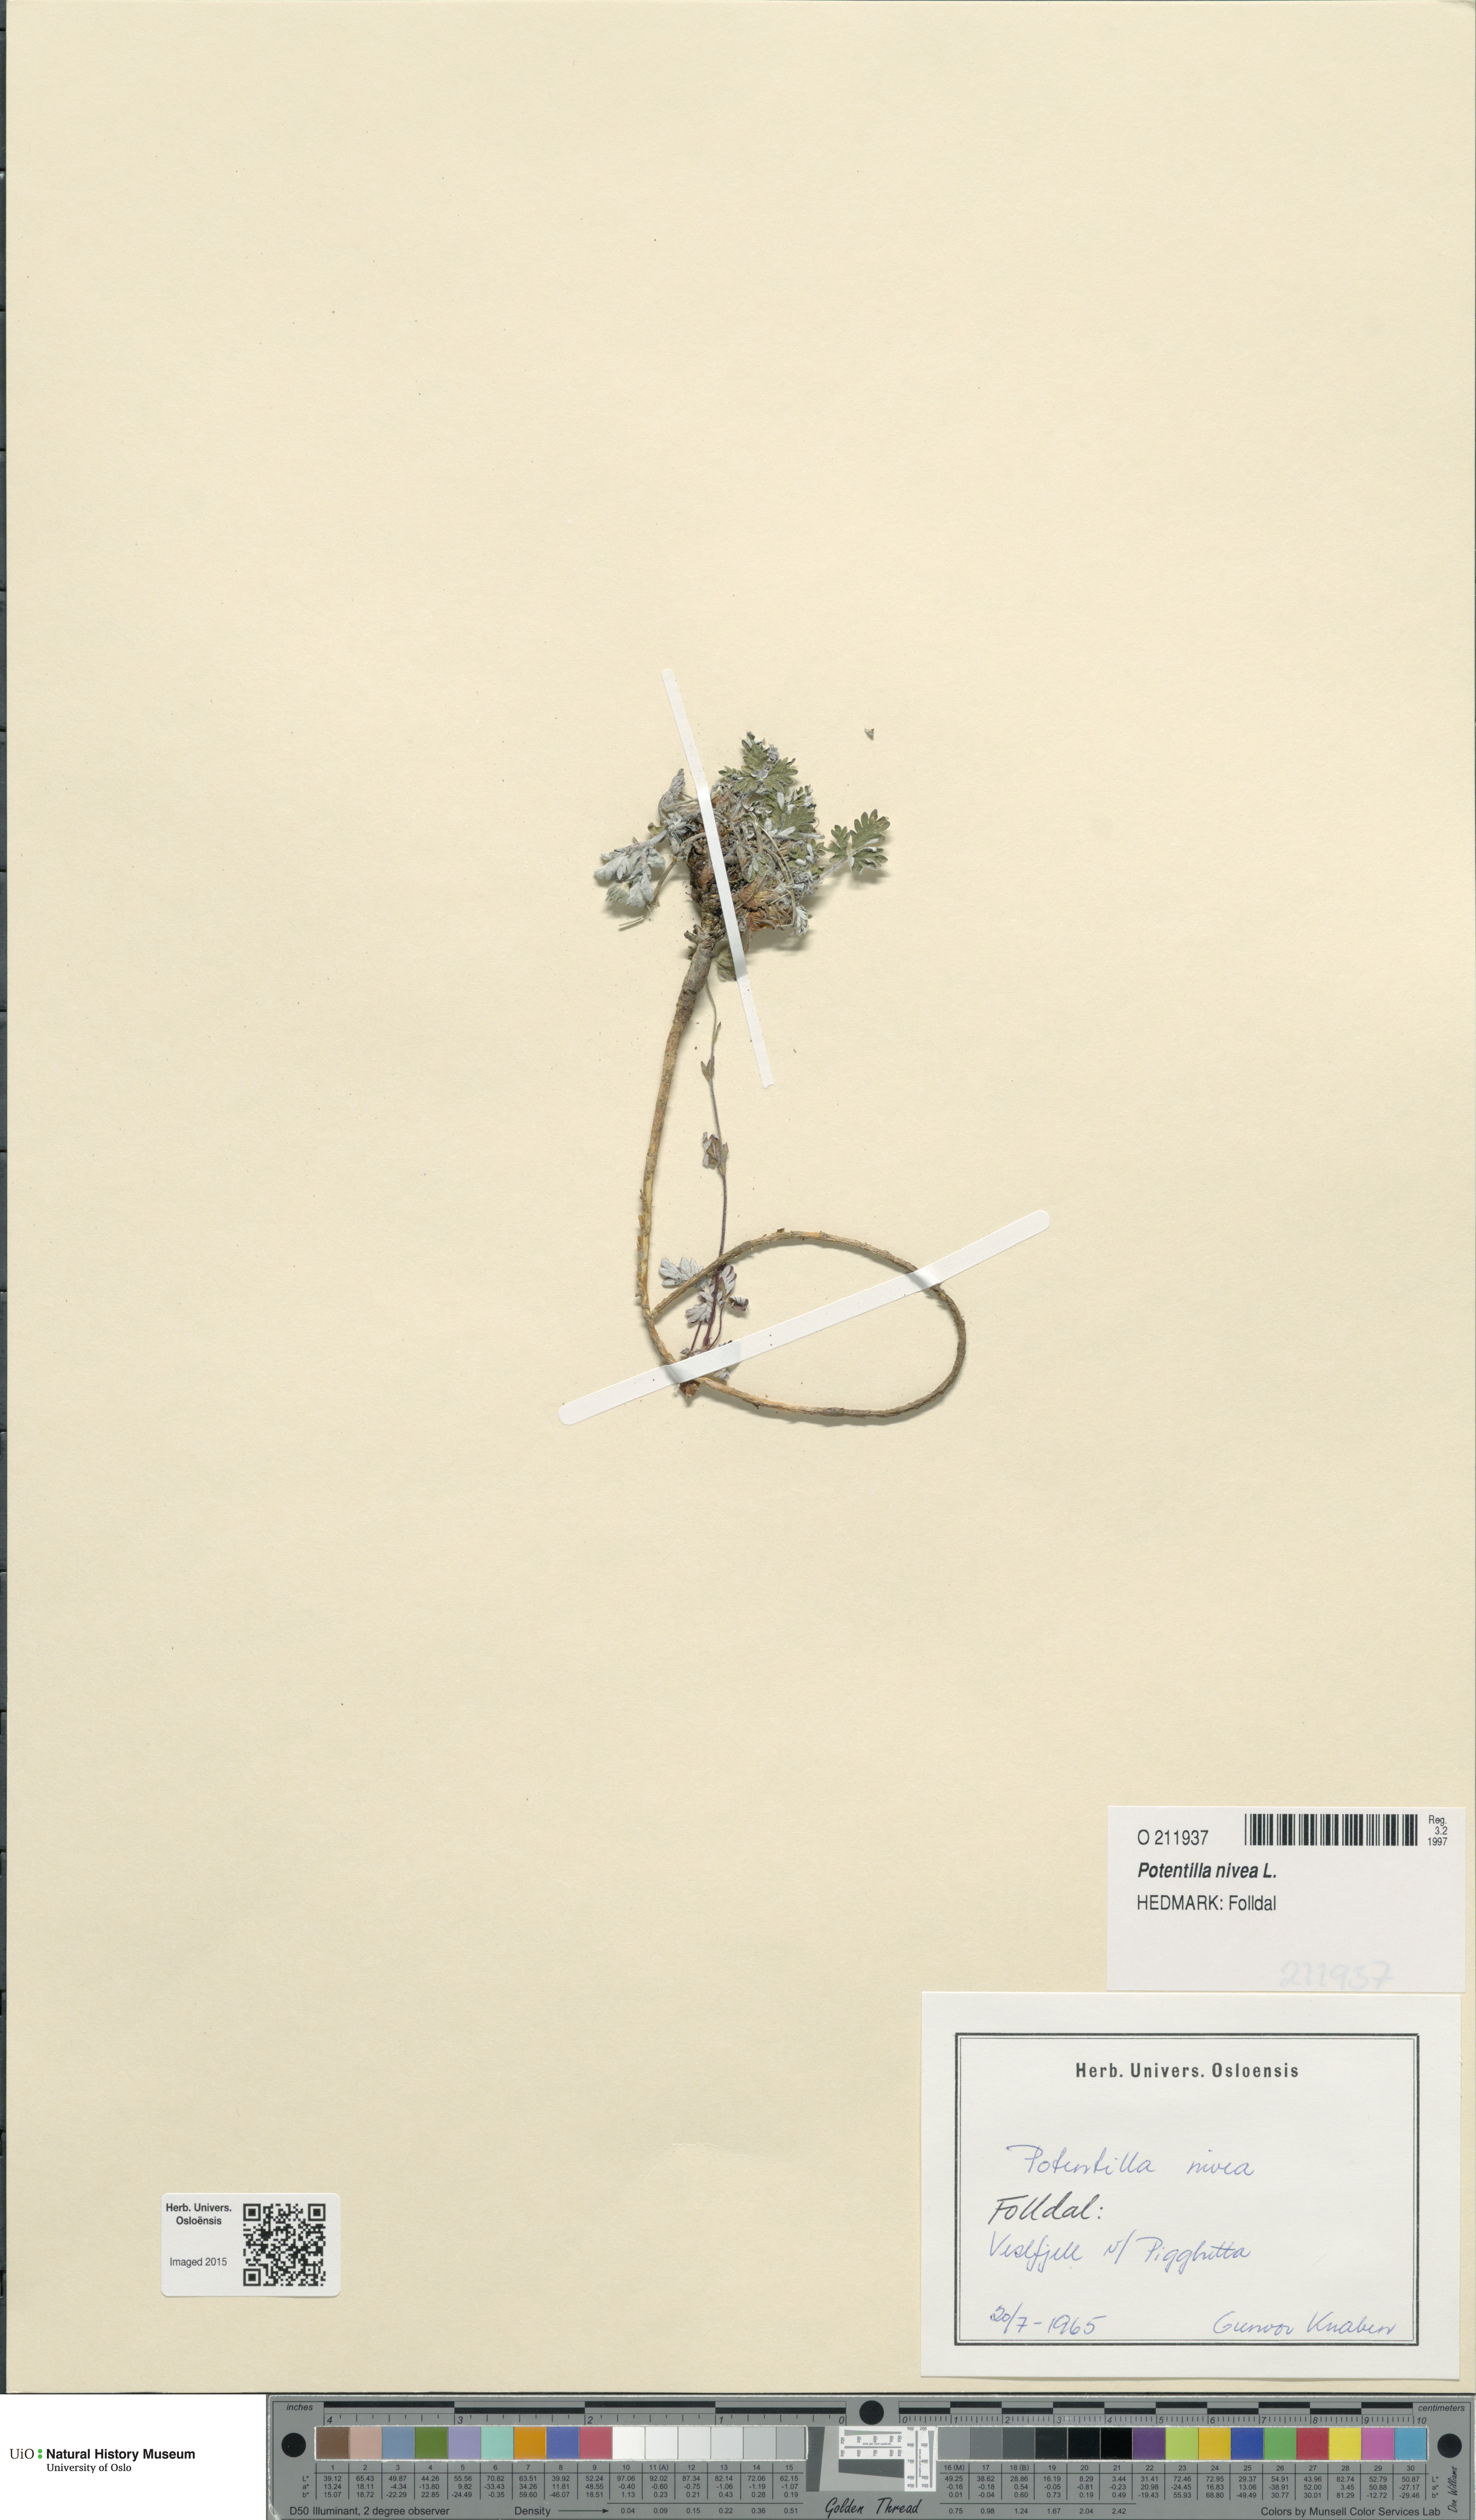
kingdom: Plantae
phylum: Tracheophyta
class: Magnoliopsida
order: Rosales
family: Rosaceae
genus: Potentilla
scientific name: Potentilla arenosa
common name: Bluff cinquefoil
